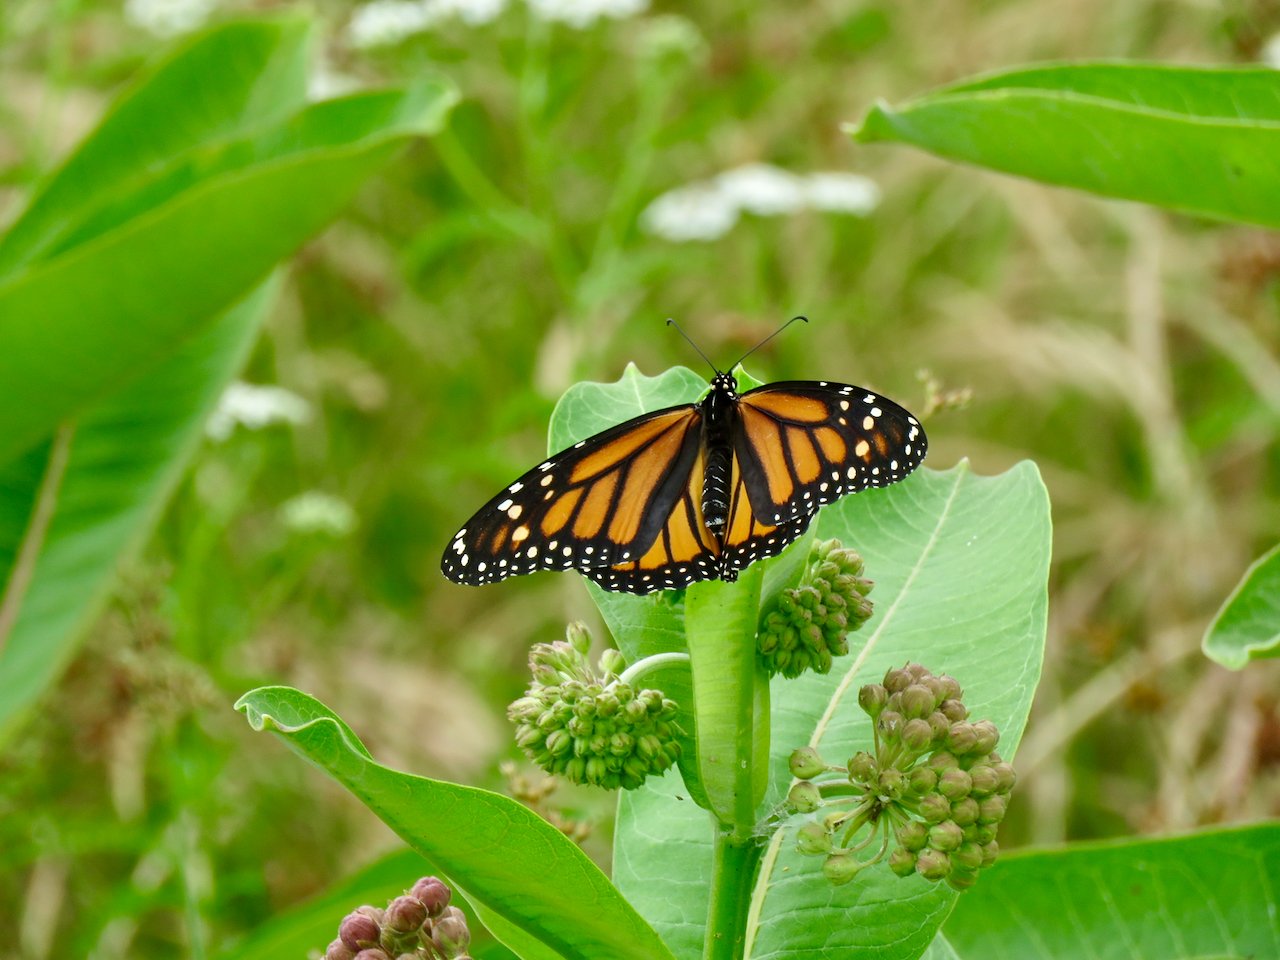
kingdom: Animalia
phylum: Arthropoda
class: Insecta
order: Lepidoptera
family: Nymphalidae
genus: Danaus
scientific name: Danaus plexippus
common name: Monarch
